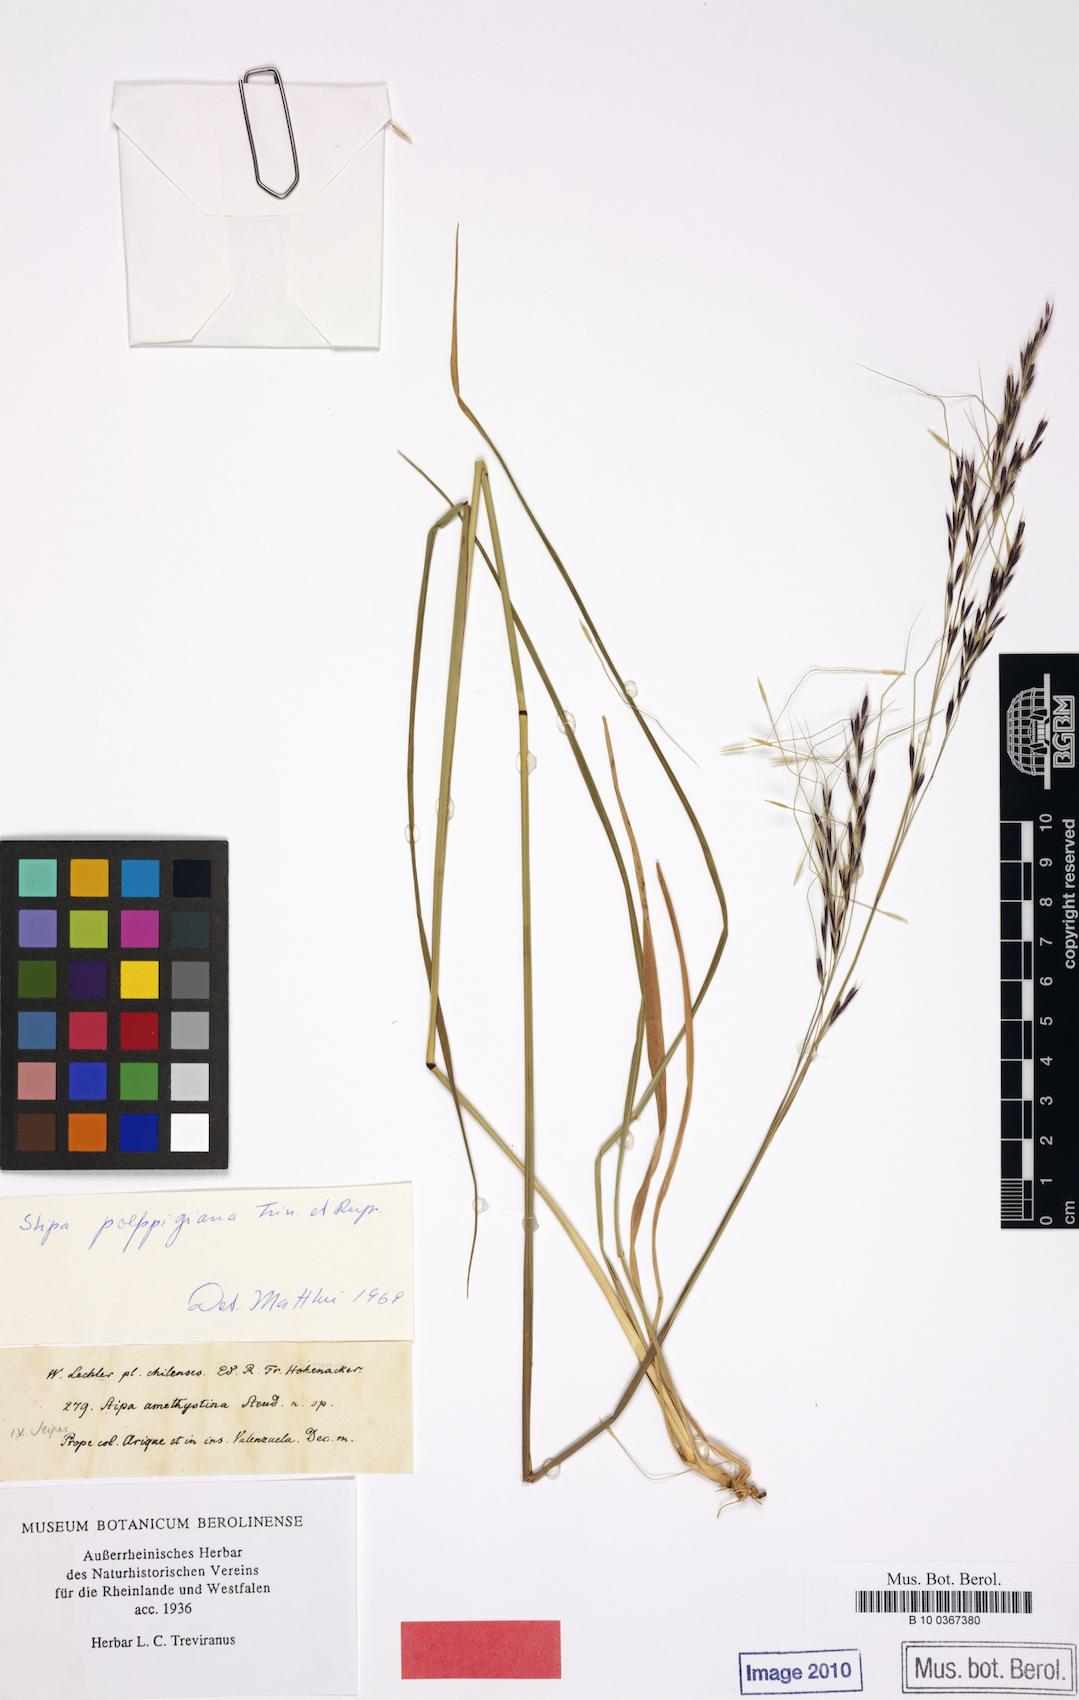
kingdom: Plantae
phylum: Tracheophyta
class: Liliopsida
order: Poales
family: Poaceae
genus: Nassella
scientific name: Nassella poeppigiana
